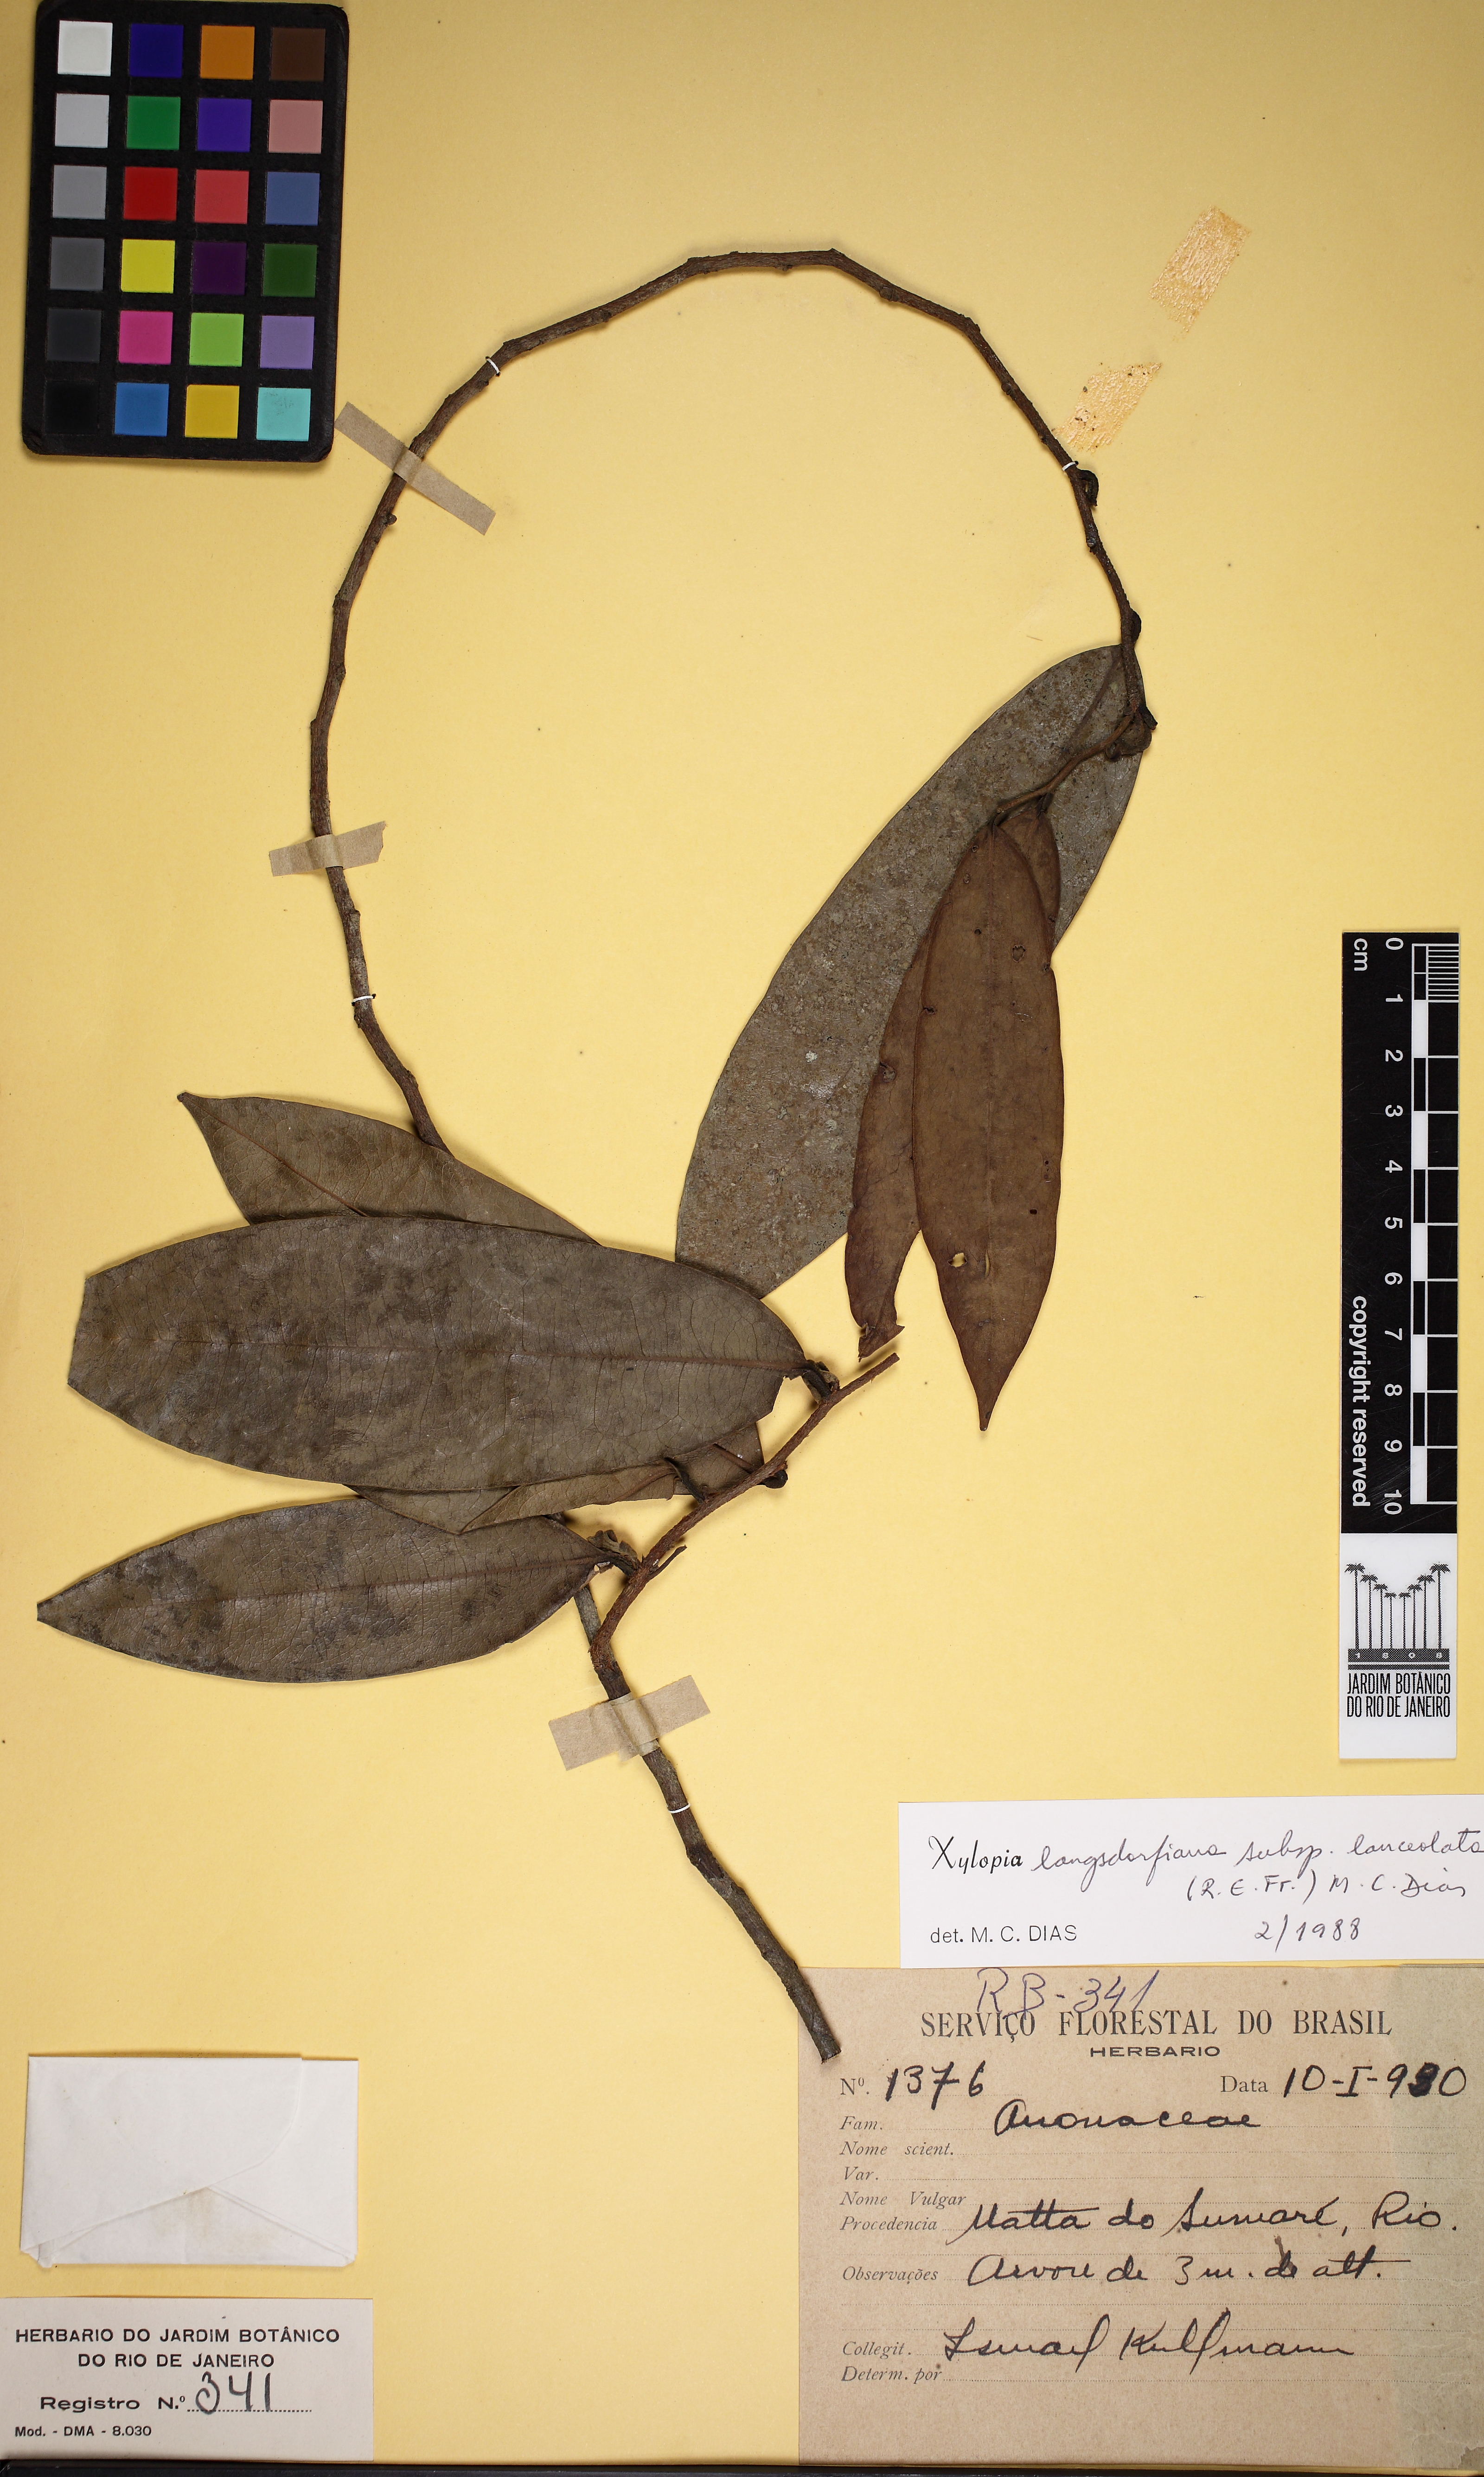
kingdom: Plantae
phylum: Tracheophyta
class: Magnoliopsida
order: Magnoliales
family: Annonaceae
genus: Xylopia
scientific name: Xylopia longicuspis
